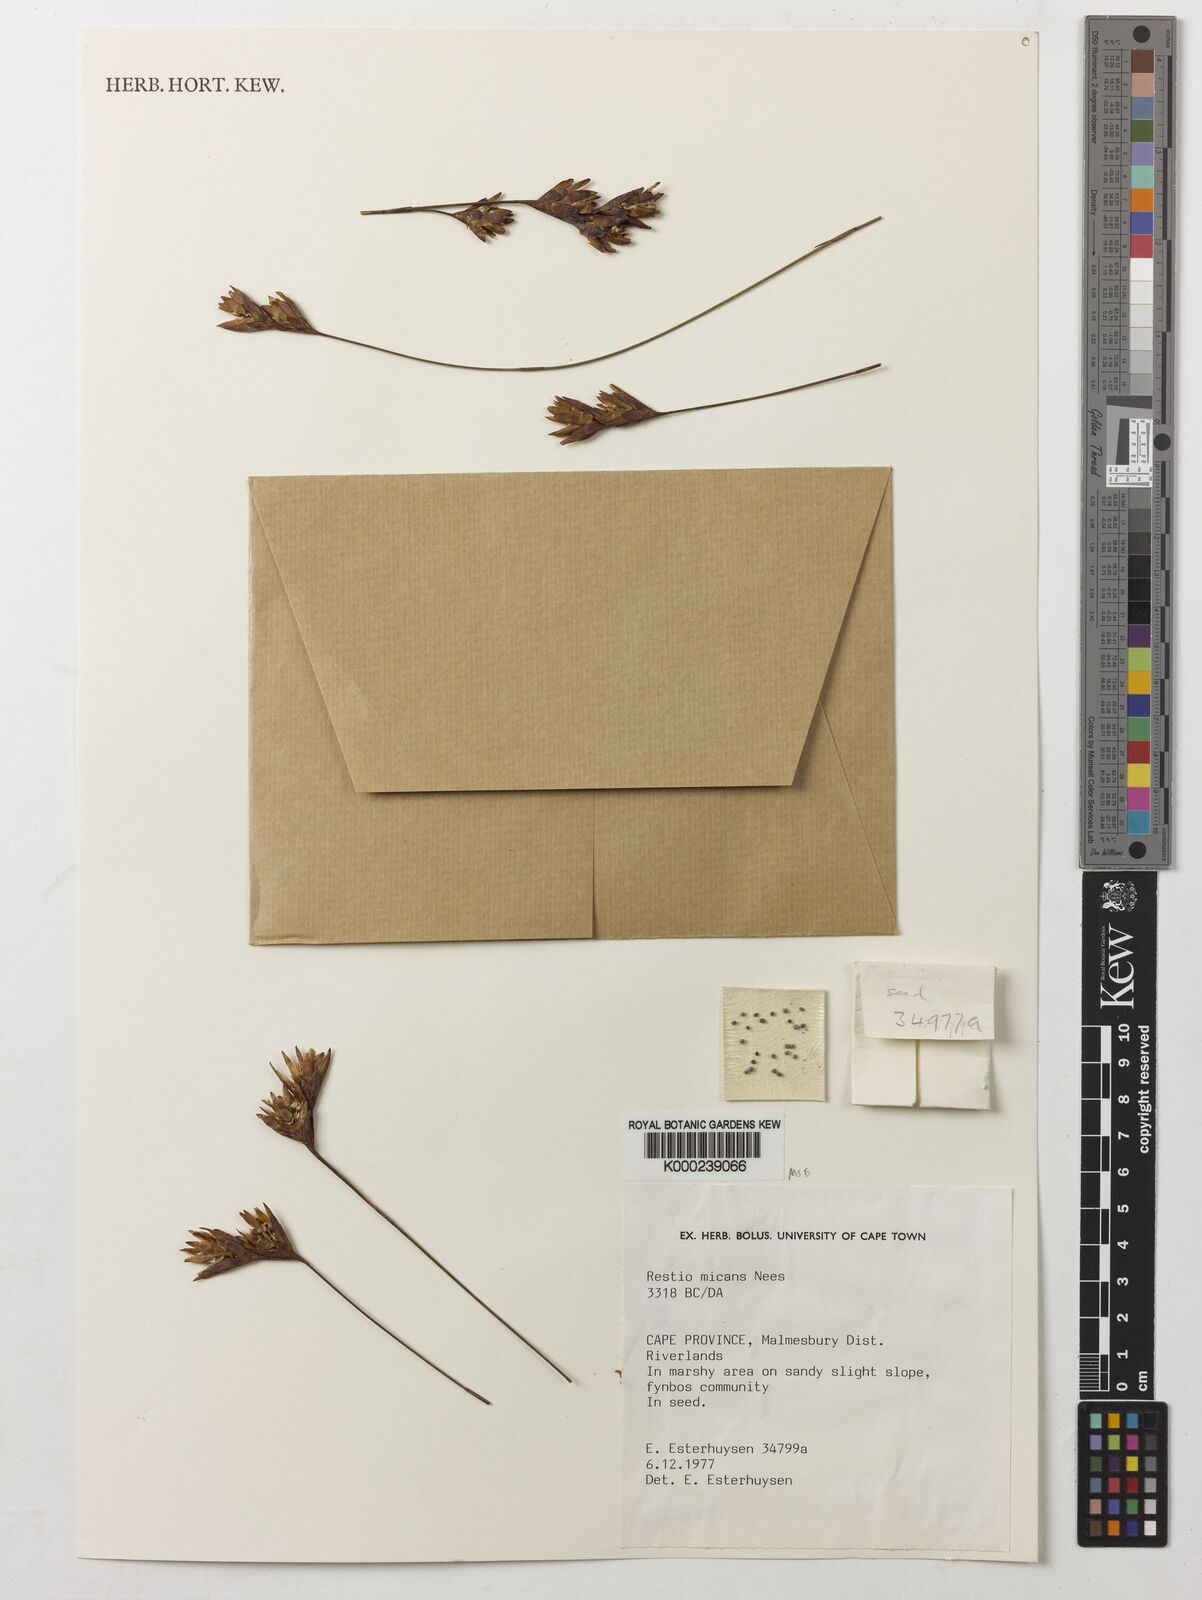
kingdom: Plantae
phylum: Tracheophyta
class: Liliopsida
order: Poales
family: Restionaceae
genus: Restio
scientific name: Restio micans
